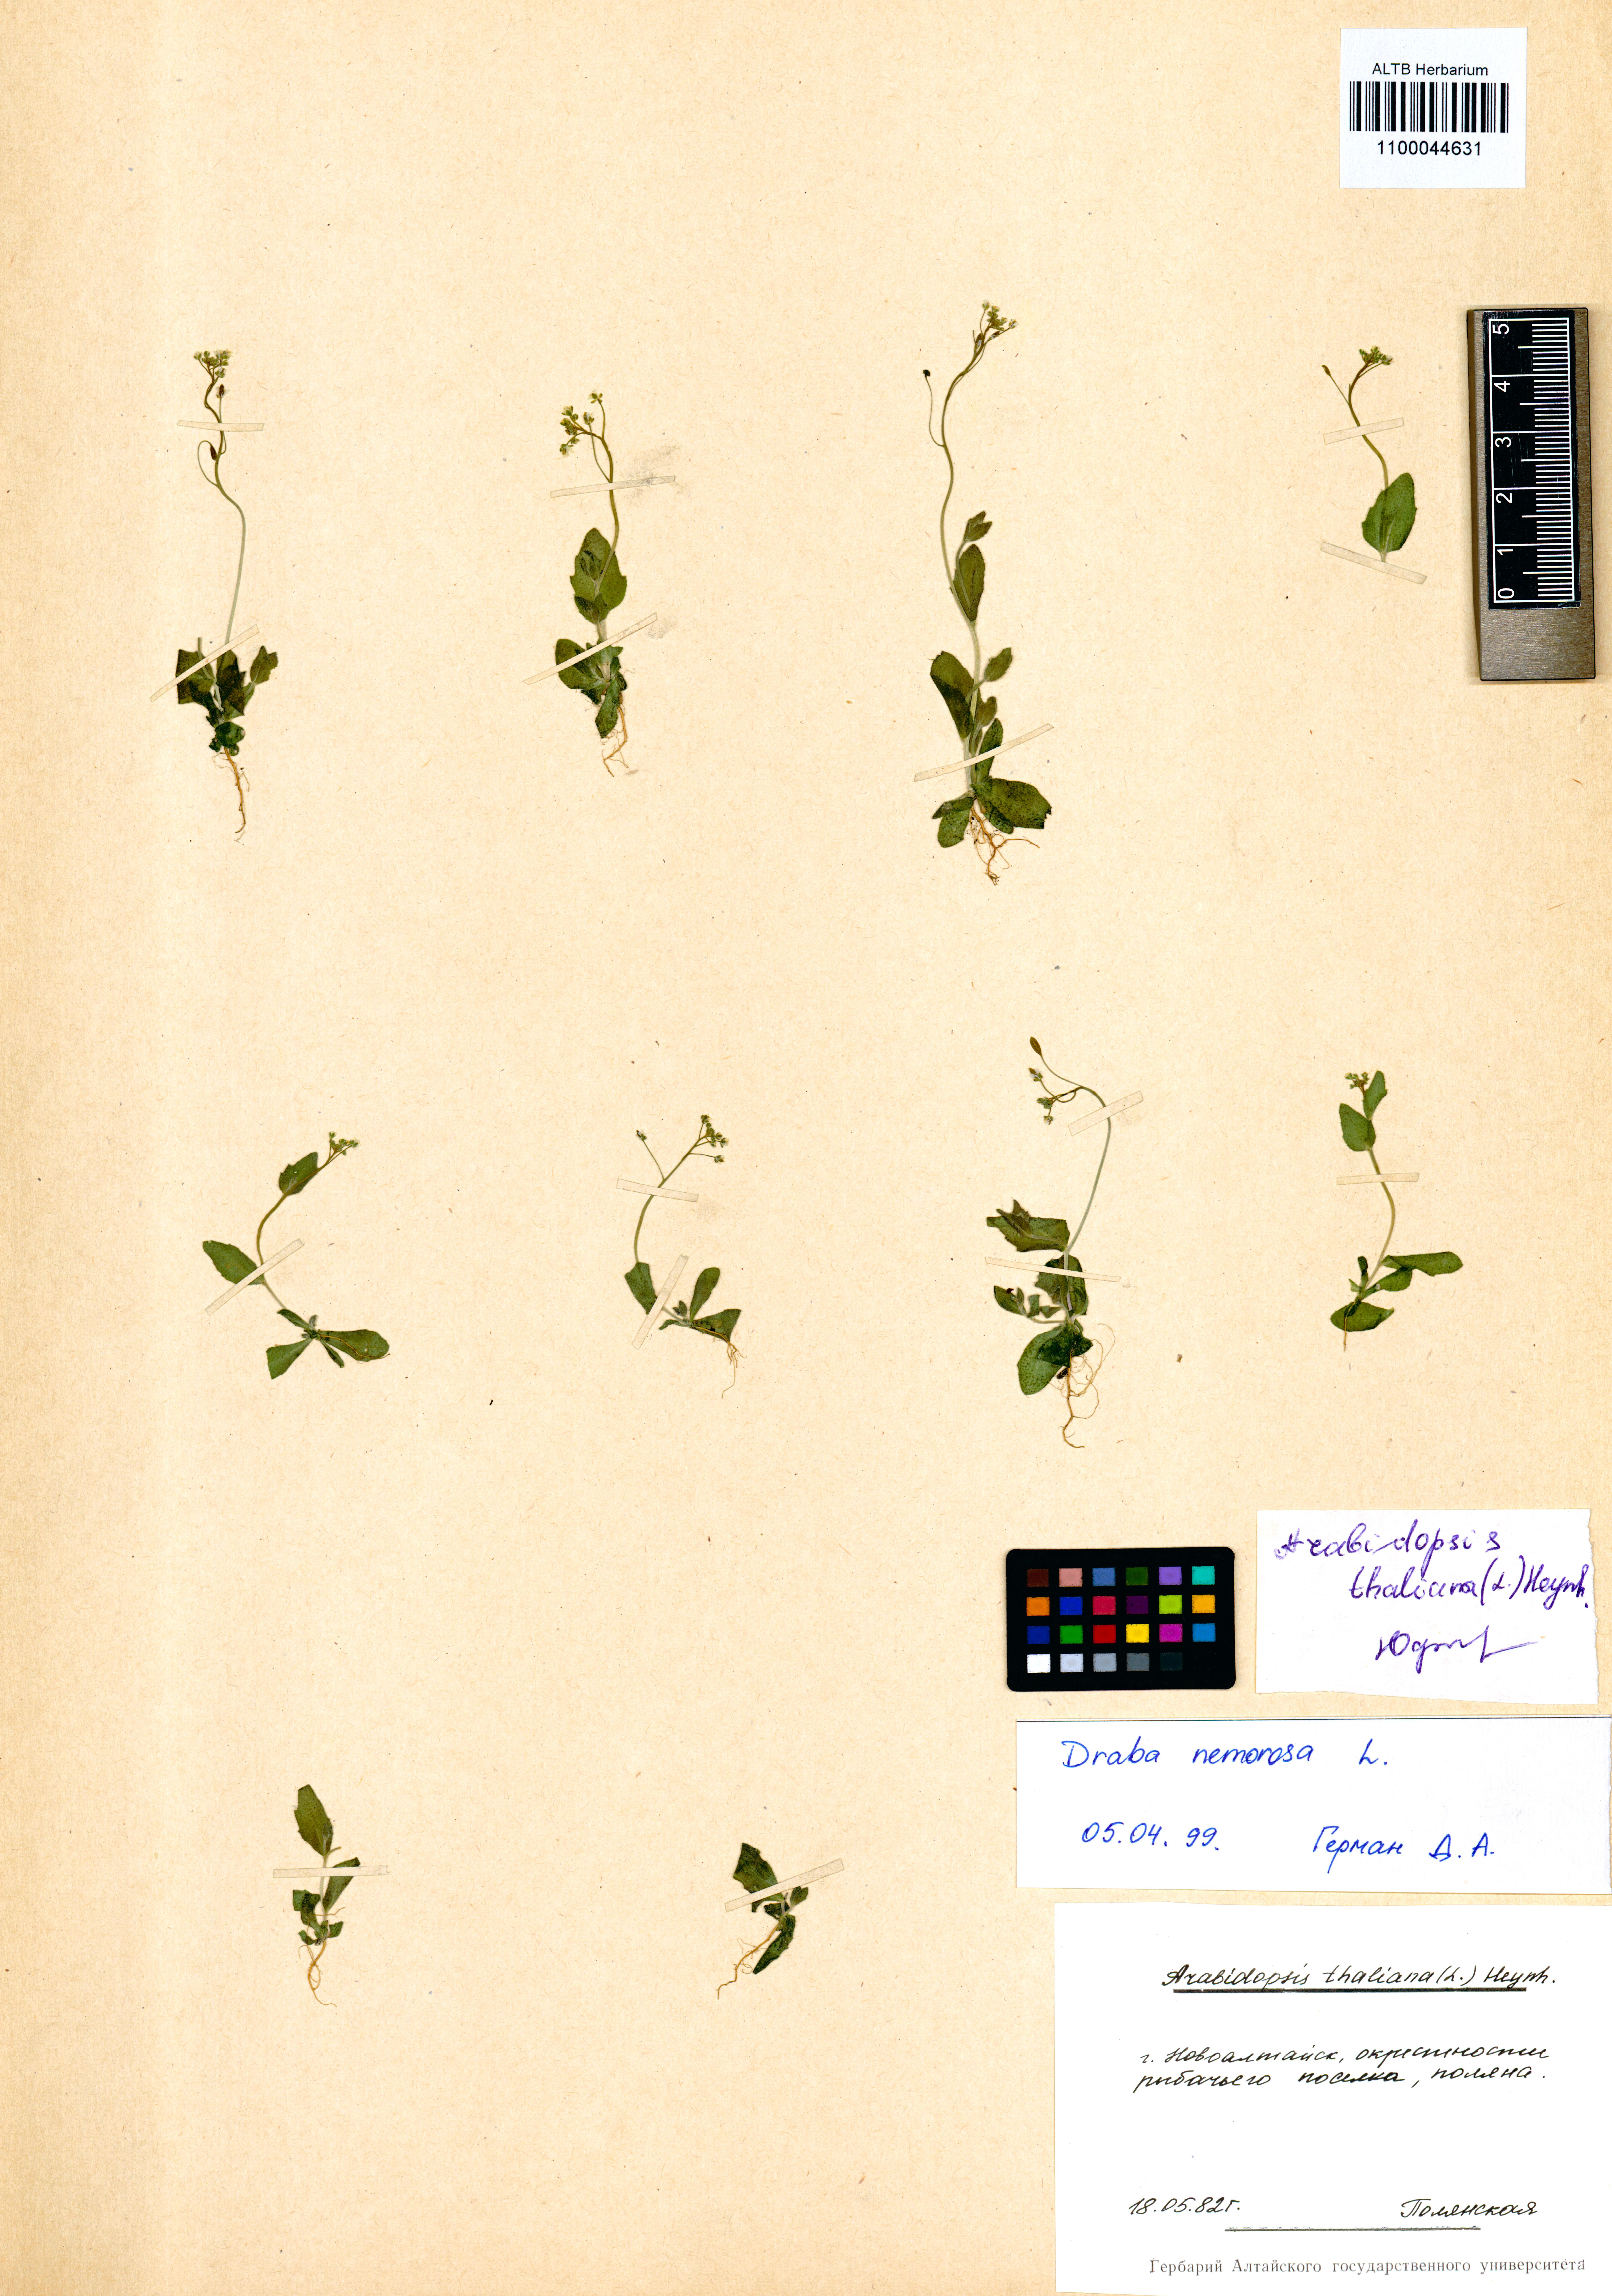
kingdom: Plantae
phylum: Tracheophyta
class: Magnoliopsida
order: Brassicales
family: Brassicaceae
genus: Draba
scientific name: Draba nemorosa
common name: Wood whitlow-grass
